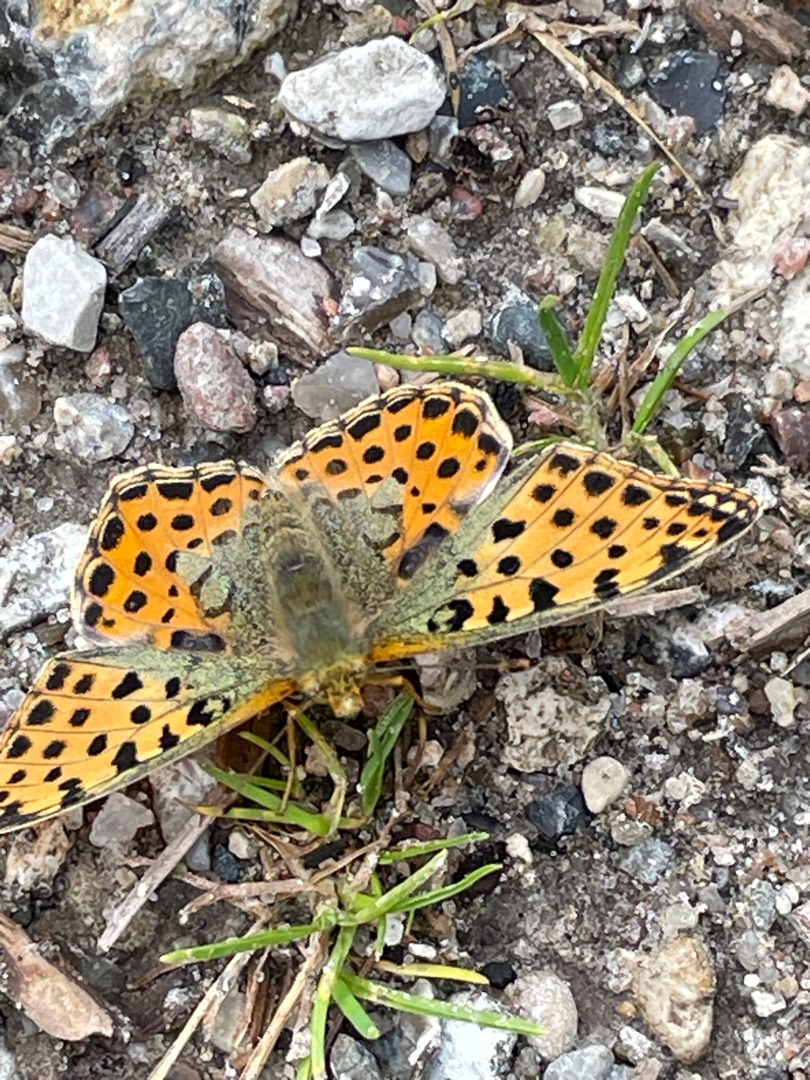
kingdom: Animalia
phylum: Arthropoda
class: Insecta
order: Lepidoptera
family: Nymphalidae
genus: Issoria
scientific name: Issoria lathonia
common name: Storplettet perlemorsommerfugl
